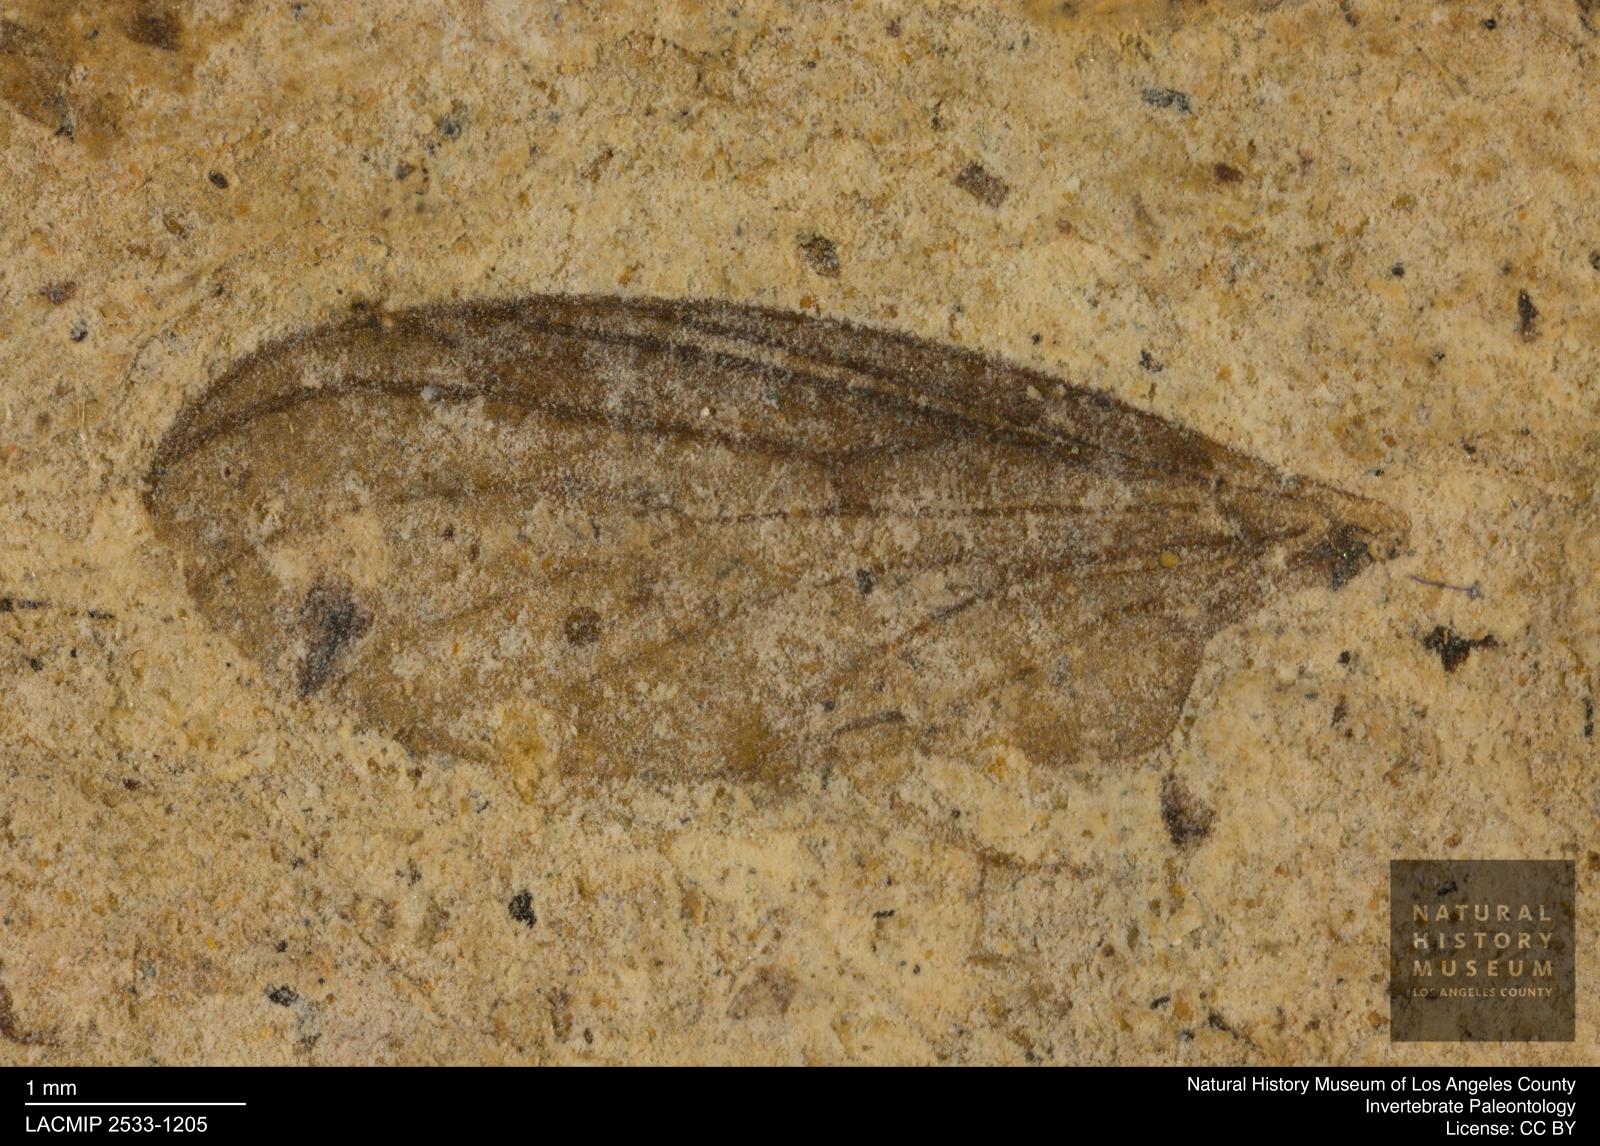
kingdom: Animalia
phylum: Arthropoda
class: Insecta
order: Diptera
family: Bibionidae
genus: Plecia
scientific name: Plecia
